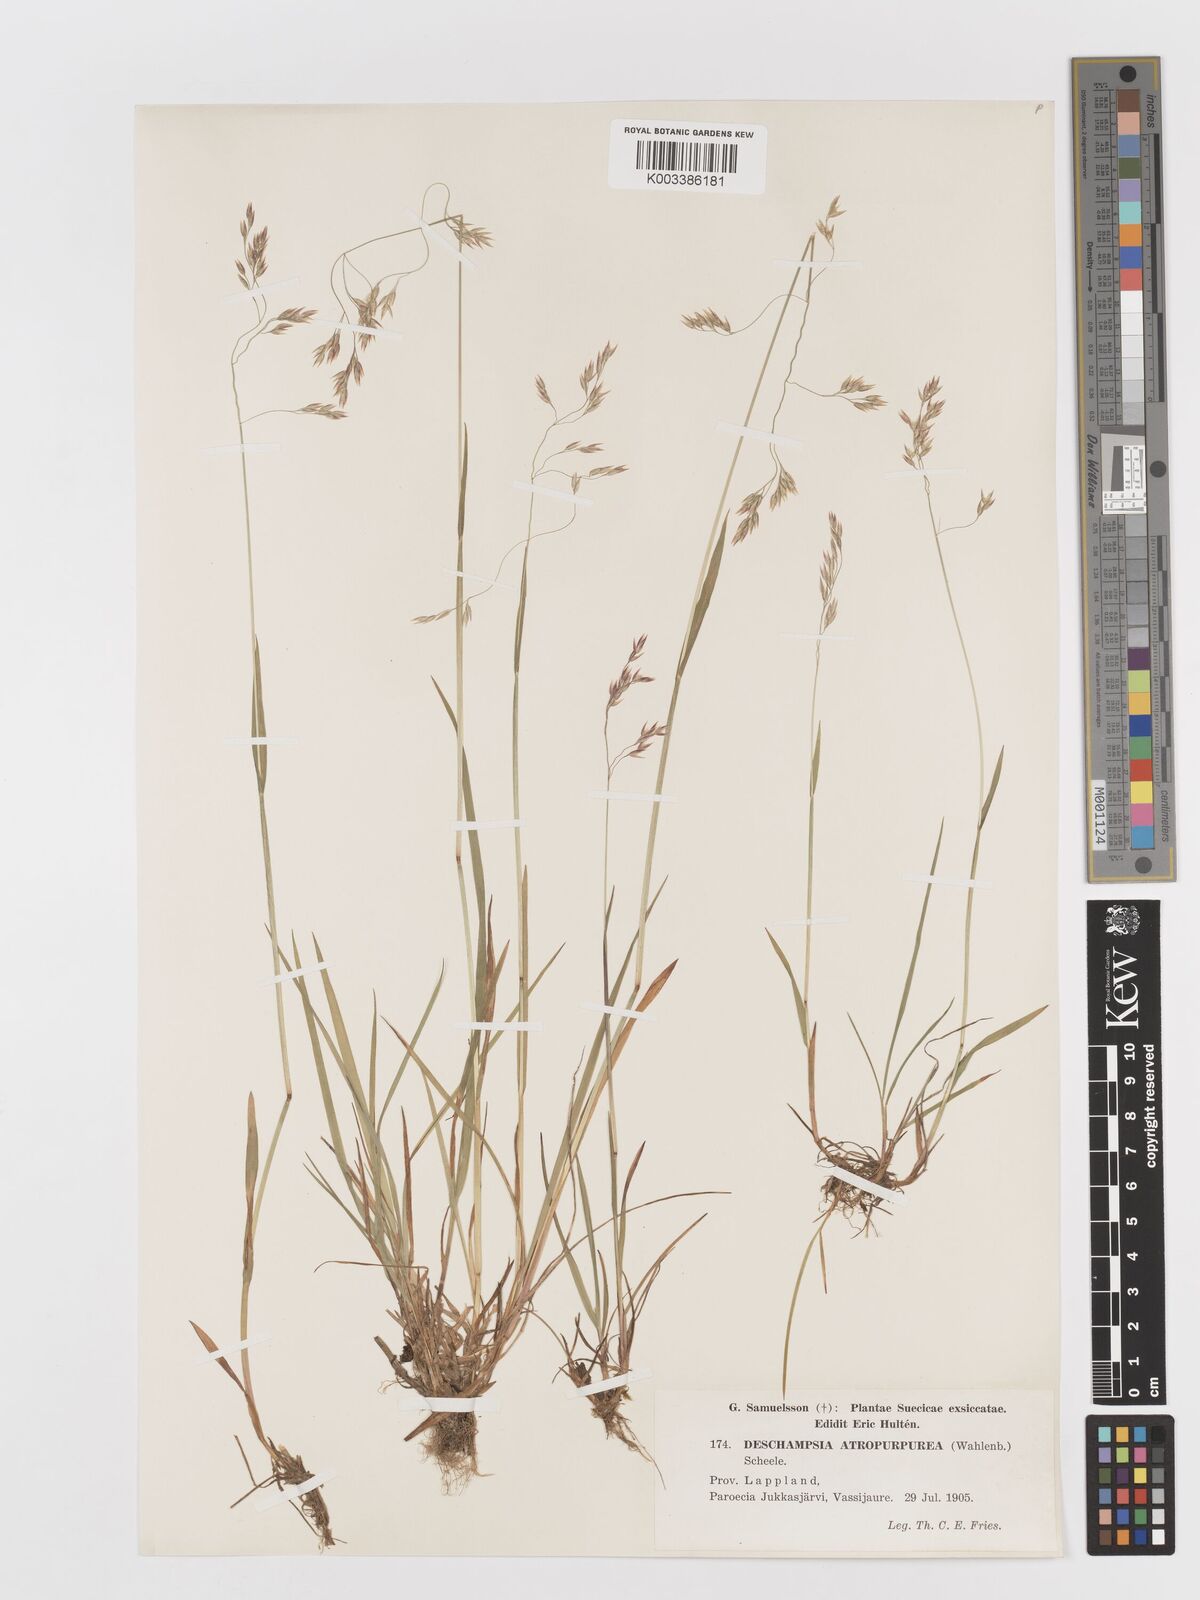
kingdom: Plantae
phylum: Tracheophyta
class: Liliopsida
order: Poales
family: Poaceae
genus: Vahlodea
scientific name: Vahlodea atropurpurea
